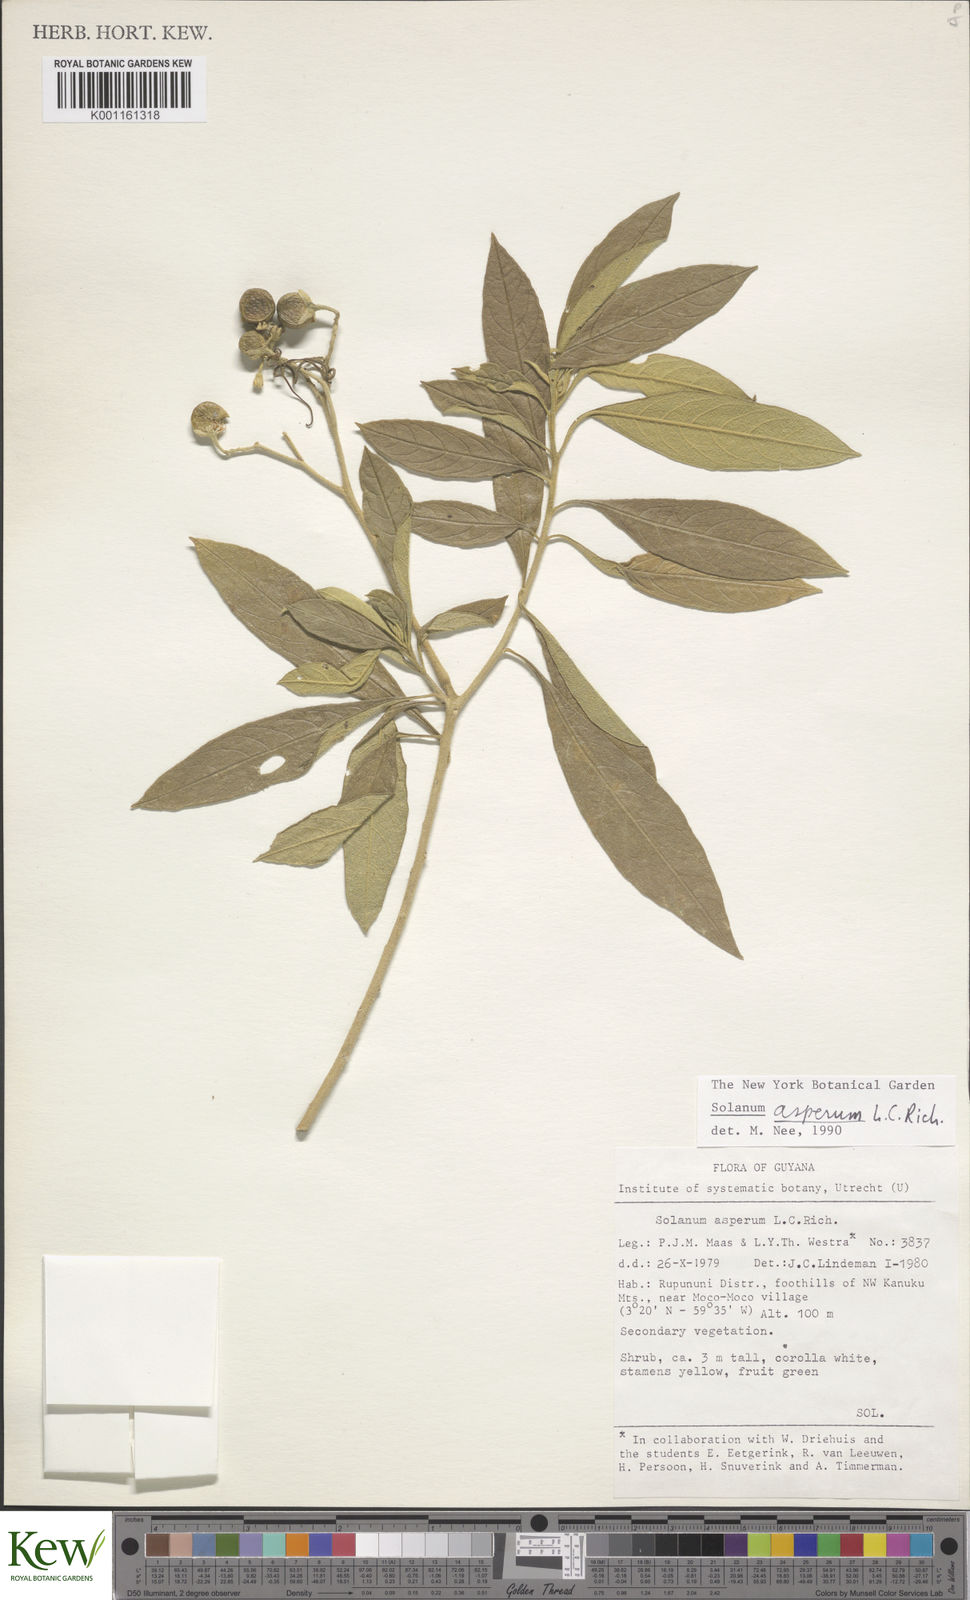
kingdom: Plantae
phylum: Tracheophyta
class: Magnoliopsida
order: Solanales
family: Solanaceae
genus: Solanum
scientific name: Solanum asperum
